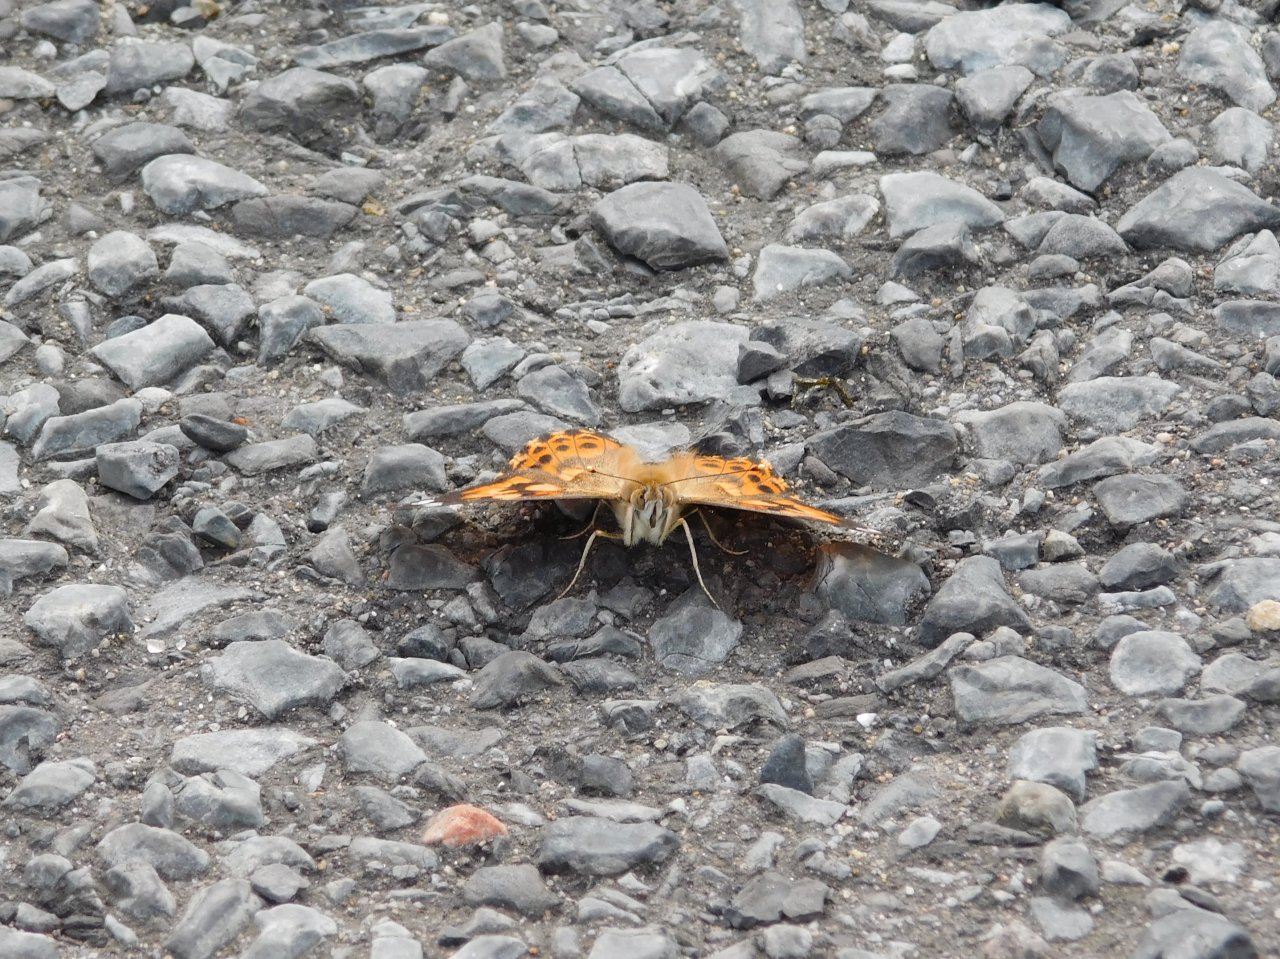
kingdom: Animalia
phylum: Arthropoda
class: Insecta
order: Lepidoptera
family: Nymphalidae
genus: Vanessa
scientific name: Vanessa cardui
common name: Painted Lady
